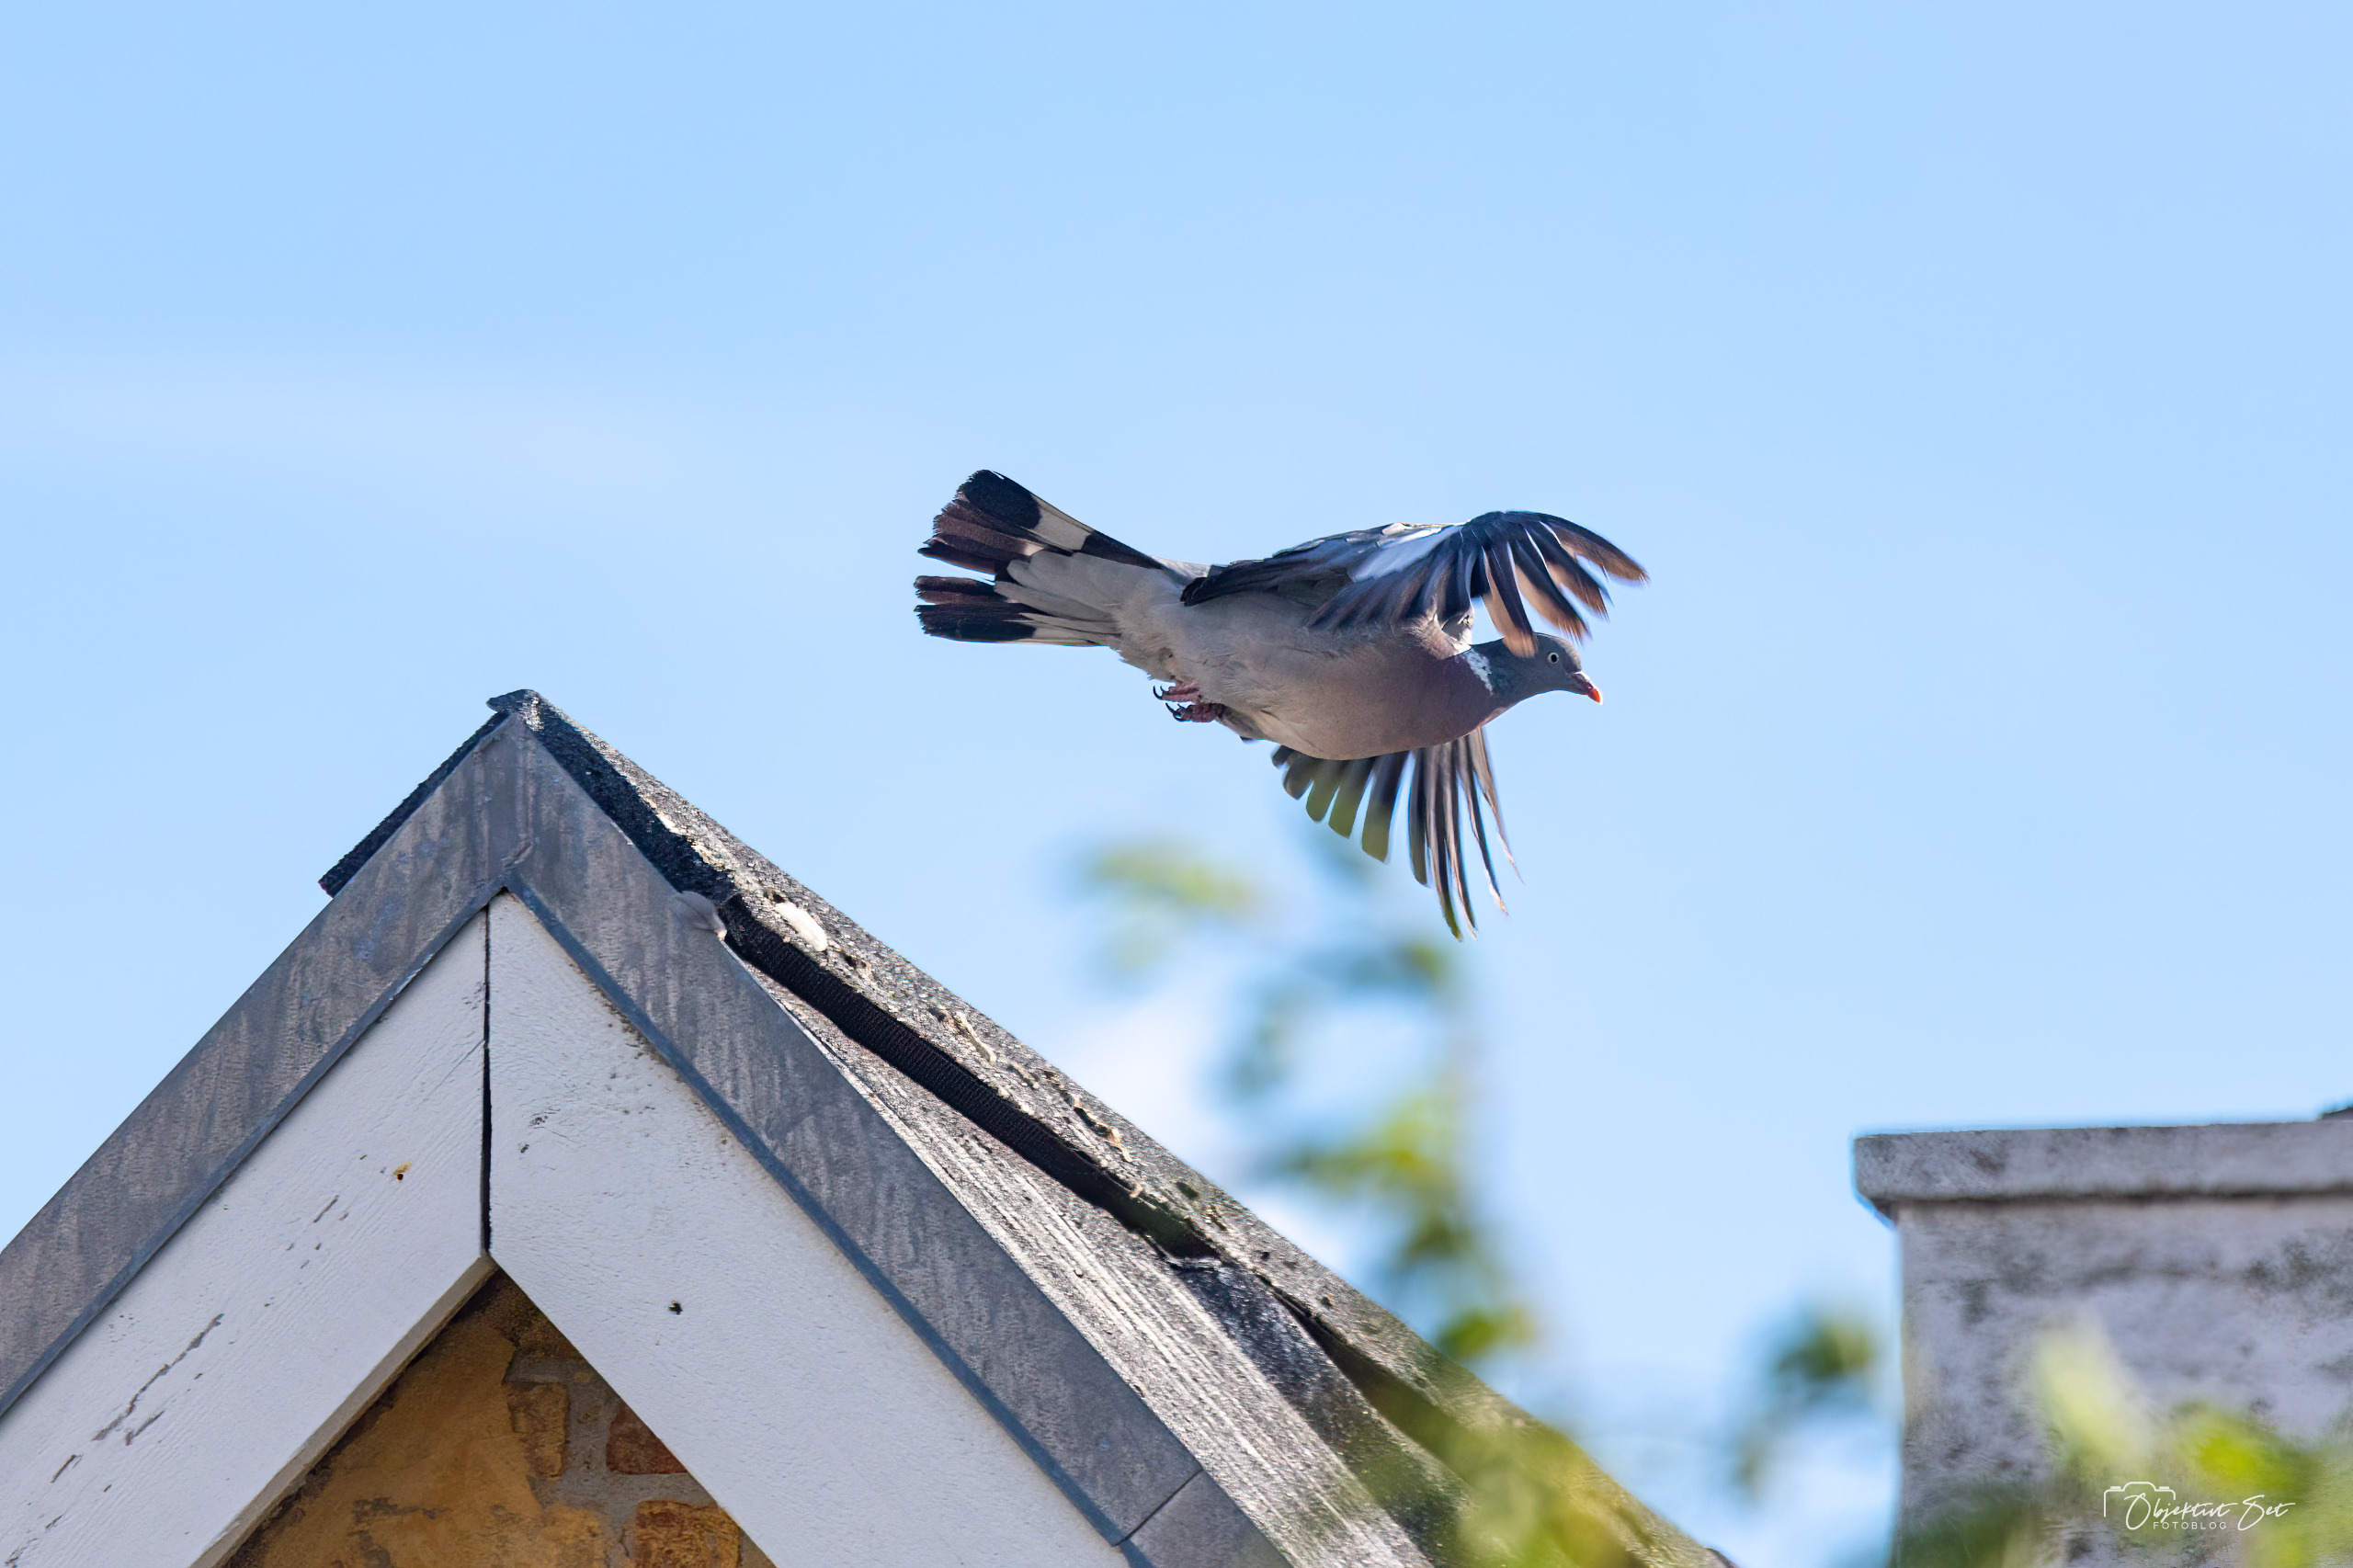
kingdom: Animalia
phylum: Chordata
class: Aves
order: Columbiformes
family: Columbidae
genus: Columba
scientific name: Columba palumbus
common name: Ringdue
